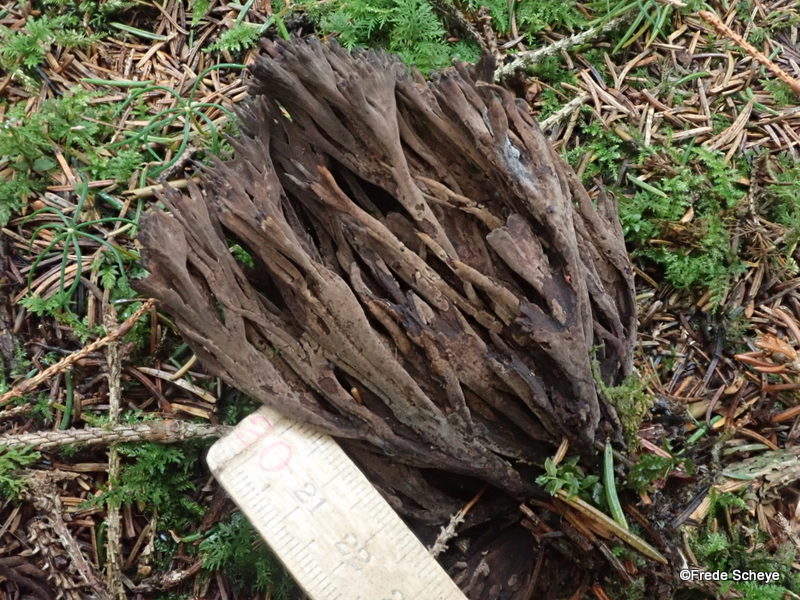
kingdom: Fungi
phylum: Basidiomycota
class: Agaricomycetes
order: Thelephorales
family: Thelephoraceae
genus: Thelephora
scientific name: Thelephora palmata
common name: grenet frynsesvamp
